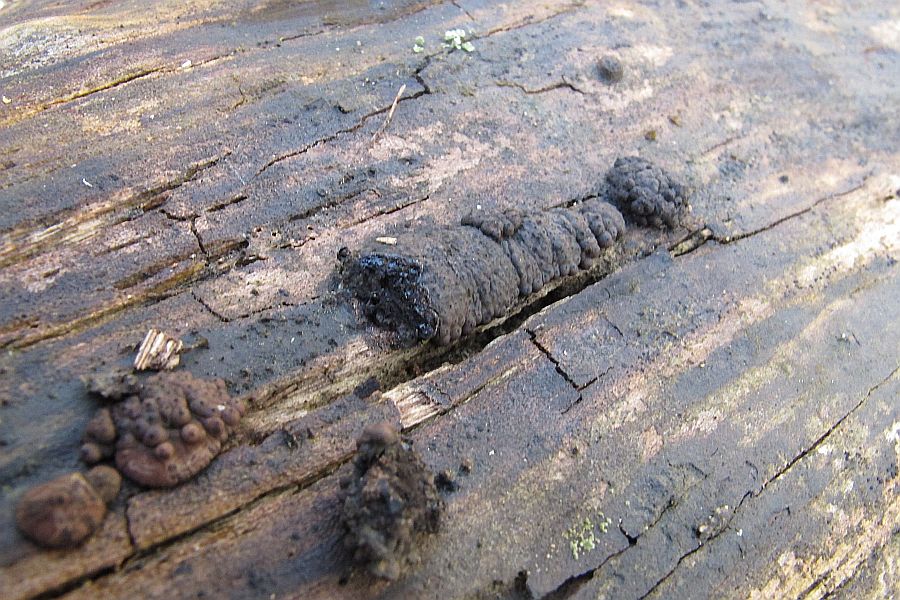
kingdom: Fungi
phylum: Ascomycota
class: Sordariomycetes
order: Xylariales
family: Hypoxylaceae
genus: Jackrogersella
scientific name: Jackrogersella multiformis
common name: foranderlig kulbær
